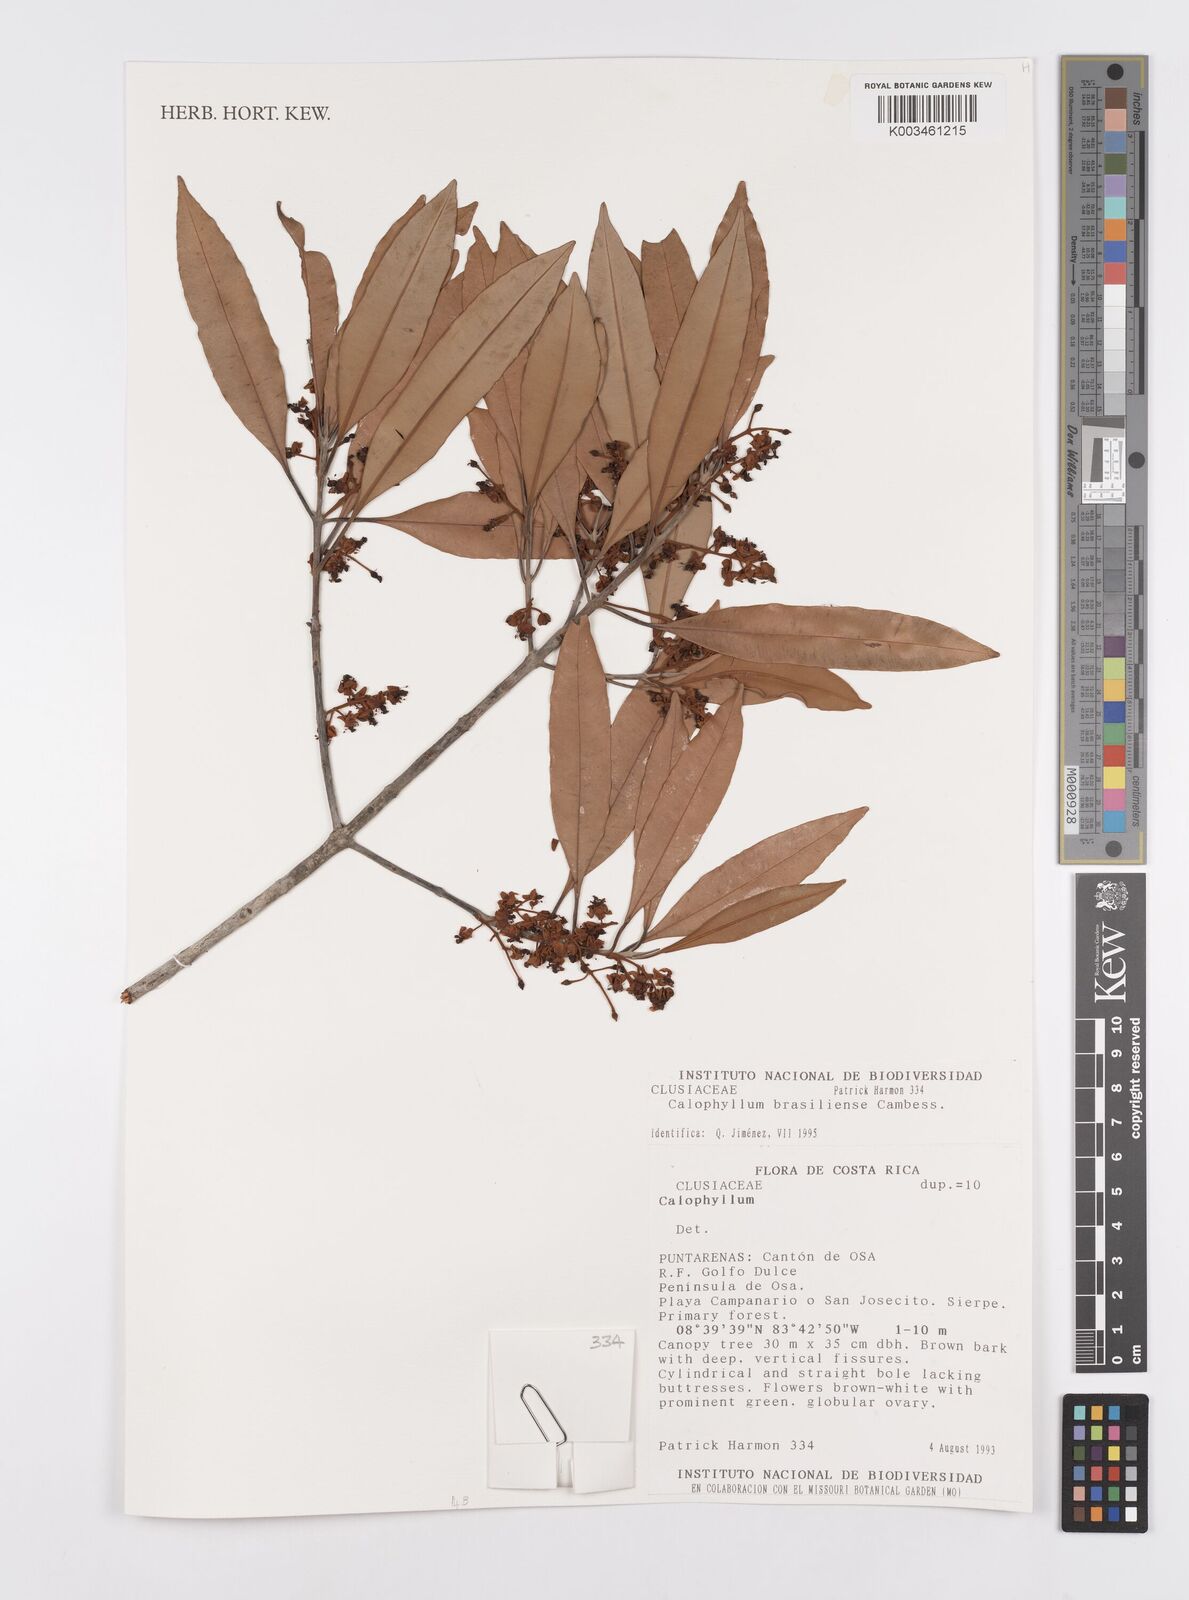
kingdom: Plantae
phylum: Tracheophyta
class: Magnoliopsida
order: Malpighiales
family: Calophyllaceae
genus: Calophyllum
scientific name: Calophyllum brasiliense
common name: Santa maria
